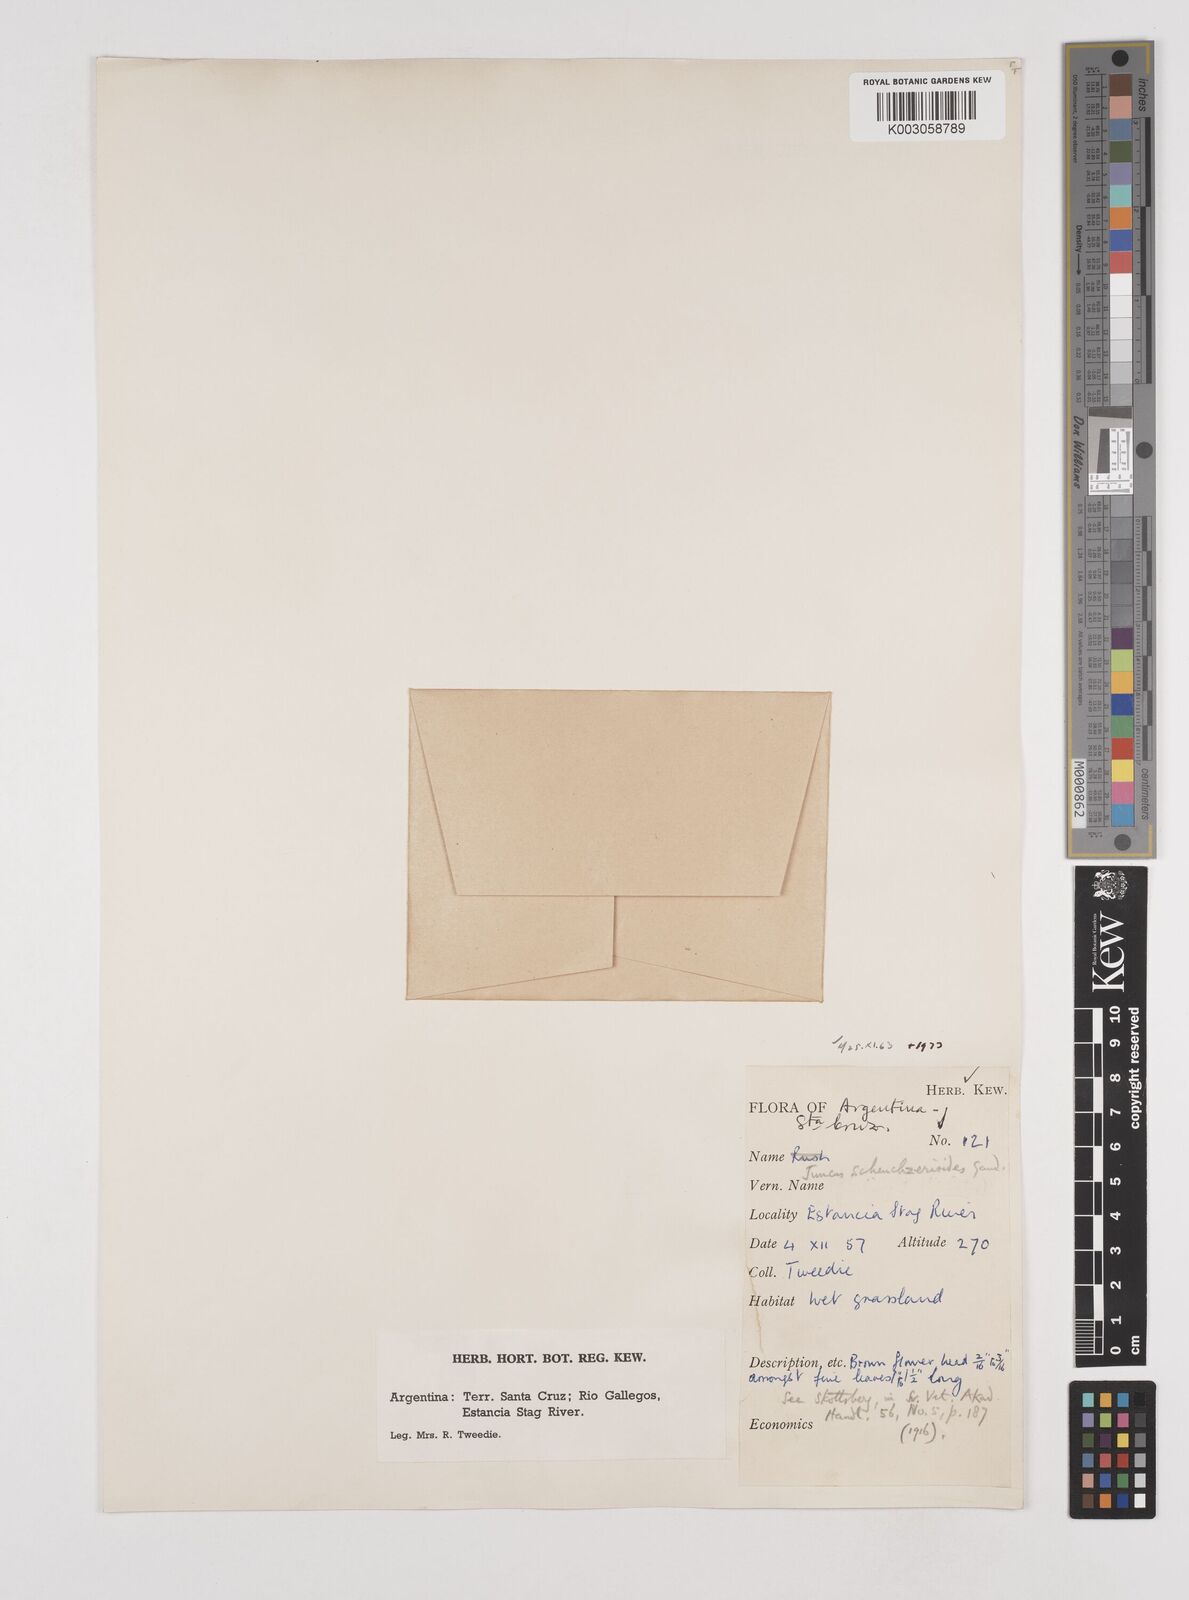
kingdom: Plantae
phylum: Tracheophyta
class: Liliopsida
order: Poales
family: Juncaceae
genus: Juncus
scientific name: Juncus scheuchzerioides
